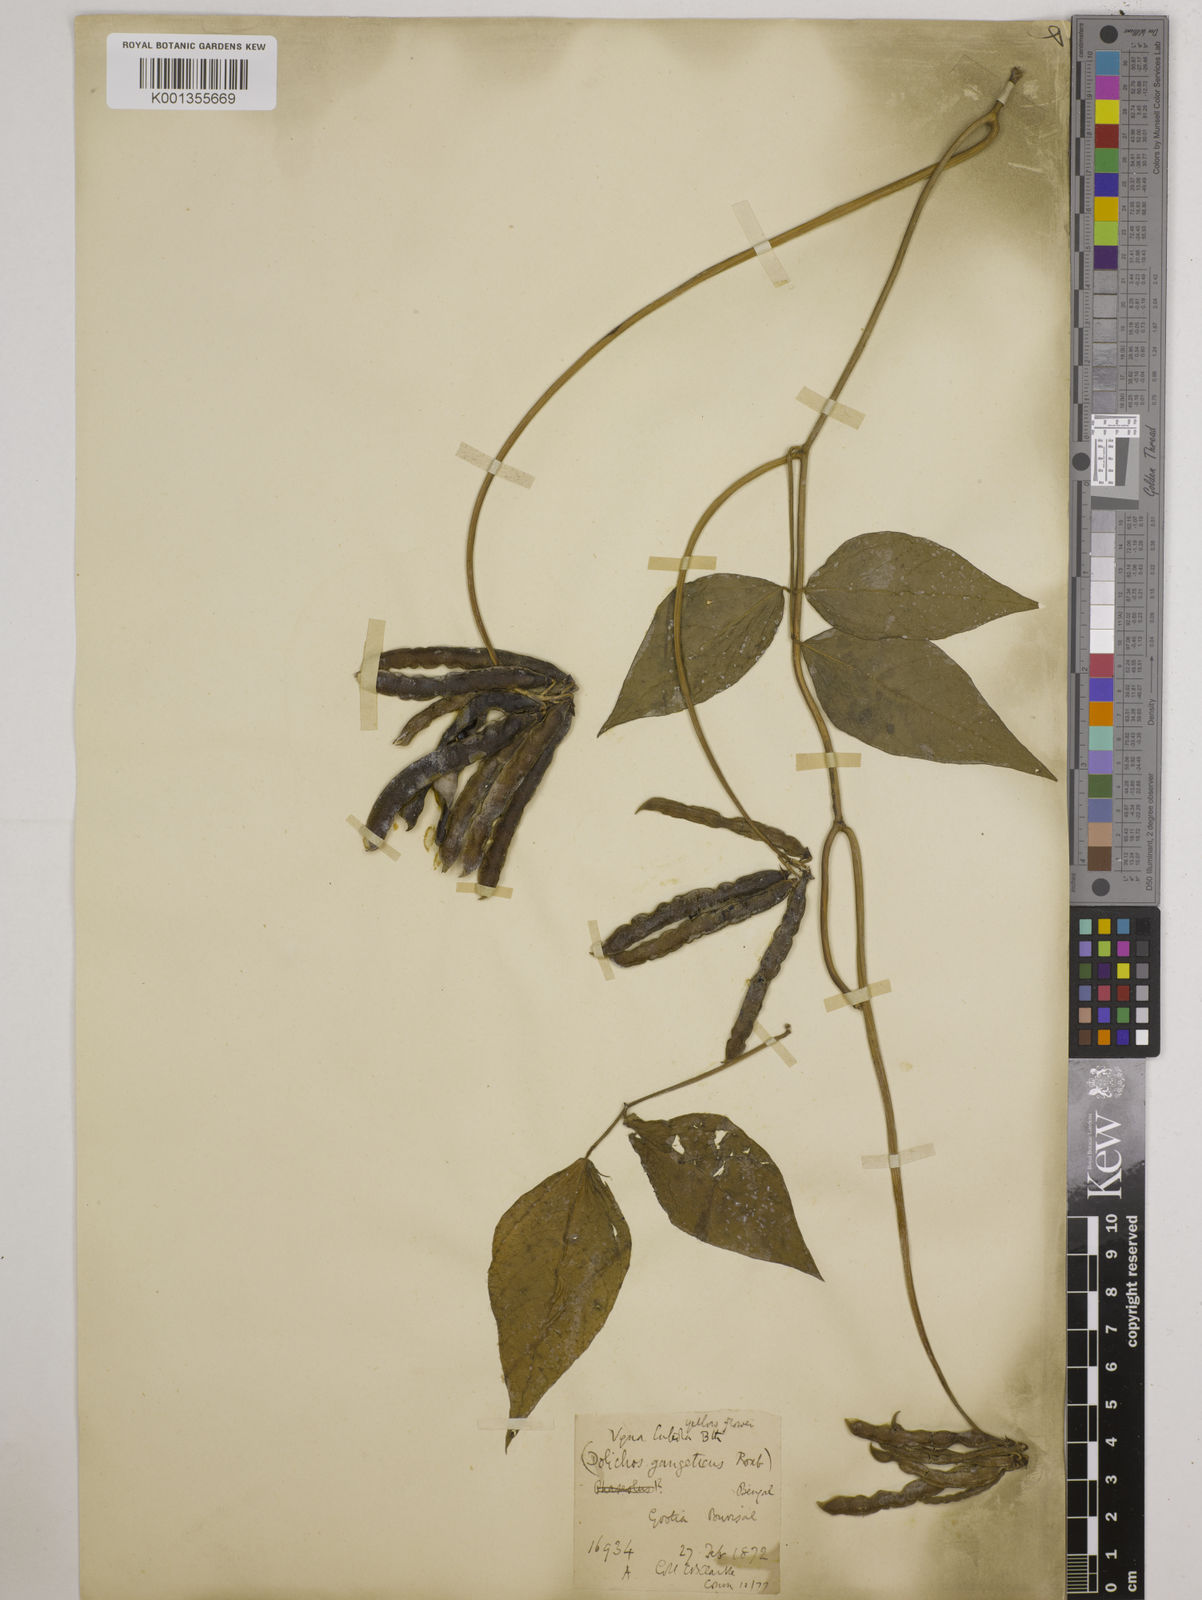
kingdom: Plantae
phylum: Tracheophyta
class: Magnoliopsida
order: Fabales
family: Fabaceae
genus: Vigna
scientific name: Vigna luteola
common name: Hairypod cowpea
